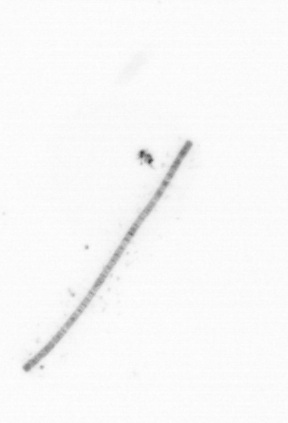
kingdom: Chromista
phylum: Ochrophyta
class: Bacillariophyceae
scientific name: Bacillariophyceae
